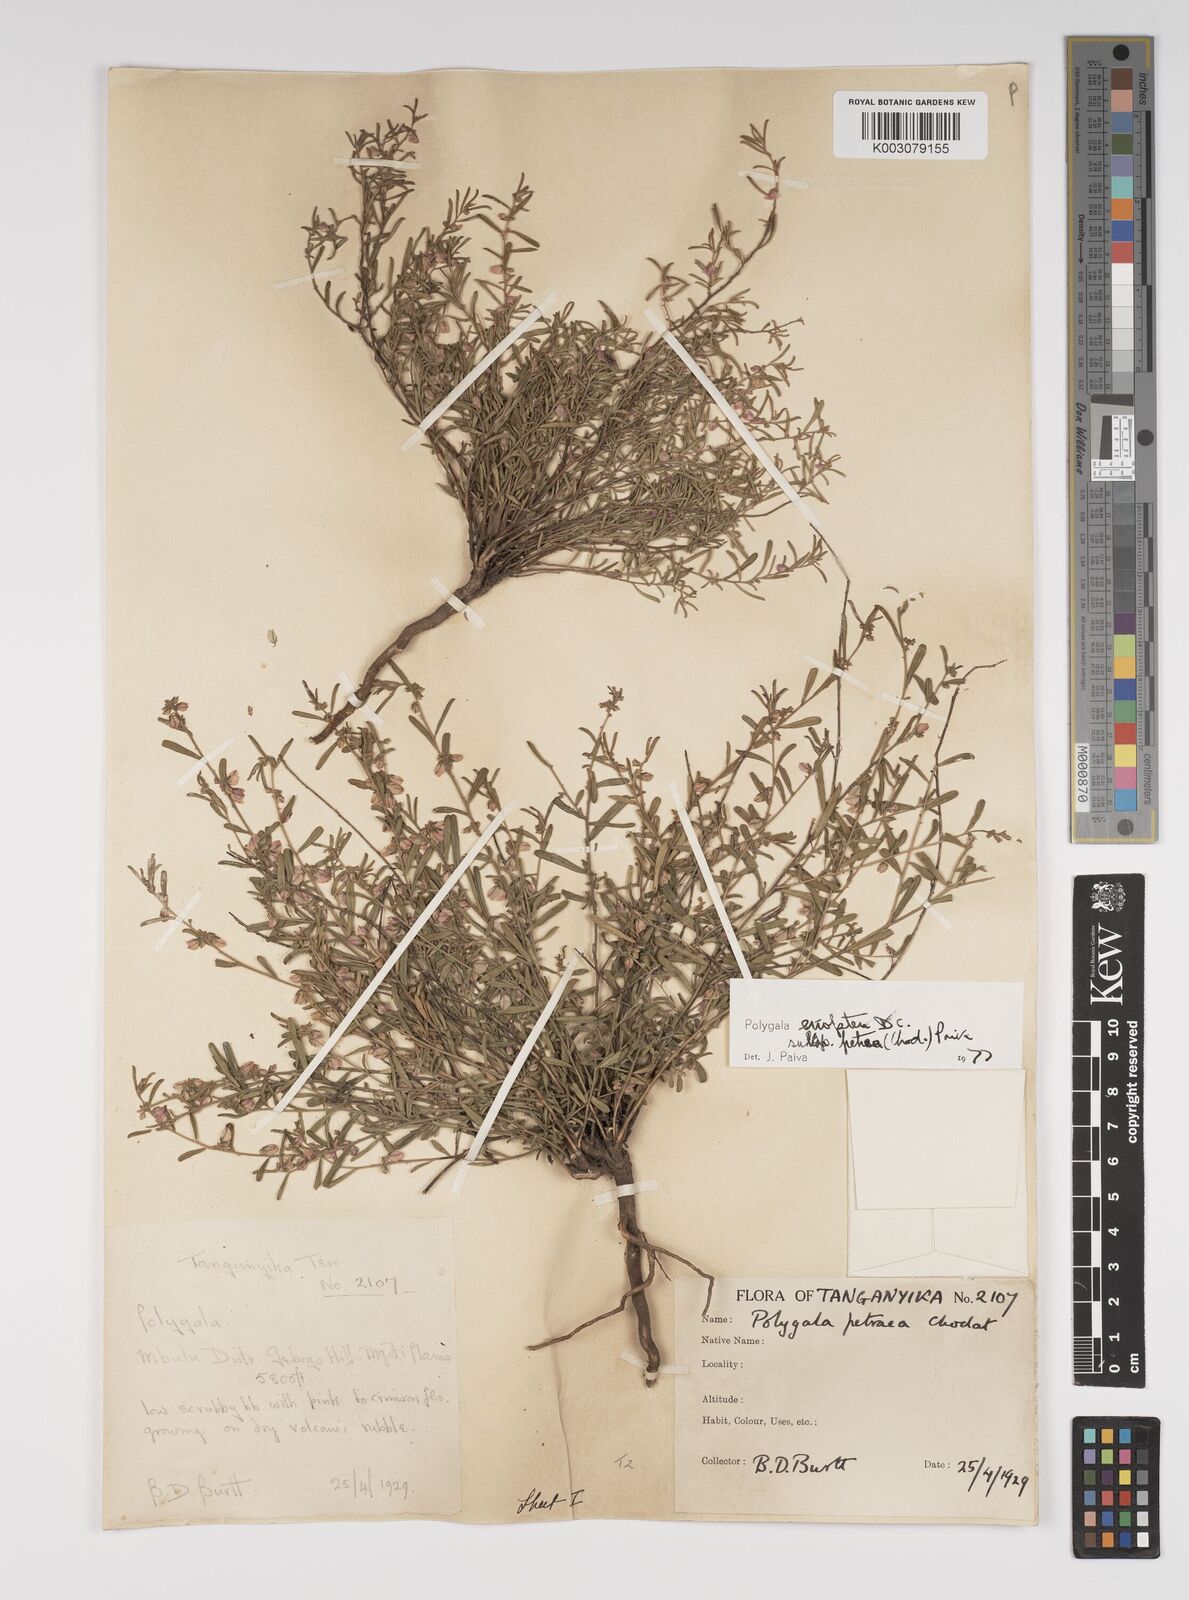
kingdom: Plantae
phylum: Tracheophyta
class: Magnoliopsida
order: Fabales
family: Polygalaceae
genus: Polygala
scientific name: Polygala erioptera
